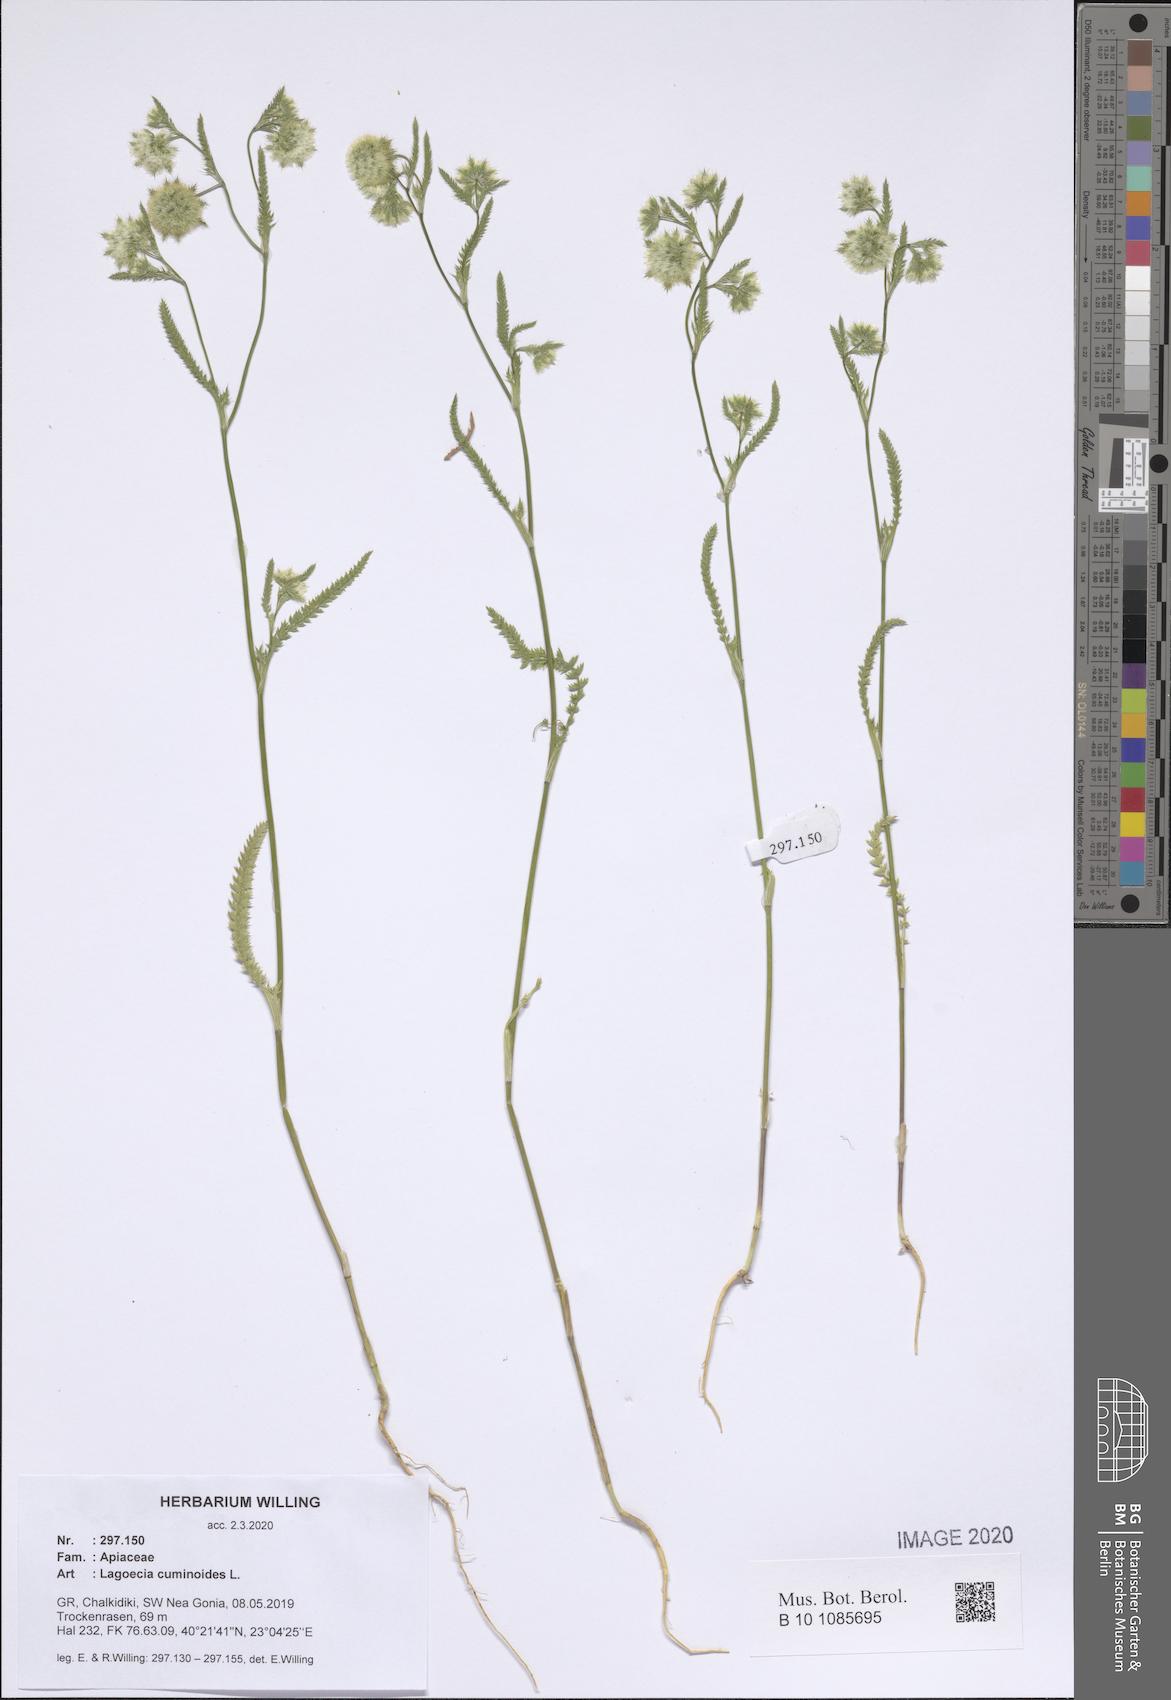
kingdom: Plantae
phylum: Tracheophyta
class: Magnoliopsida
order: Apiales
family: Apiaceae
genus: Lagoecia
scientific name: Lagoecia cuminoides
